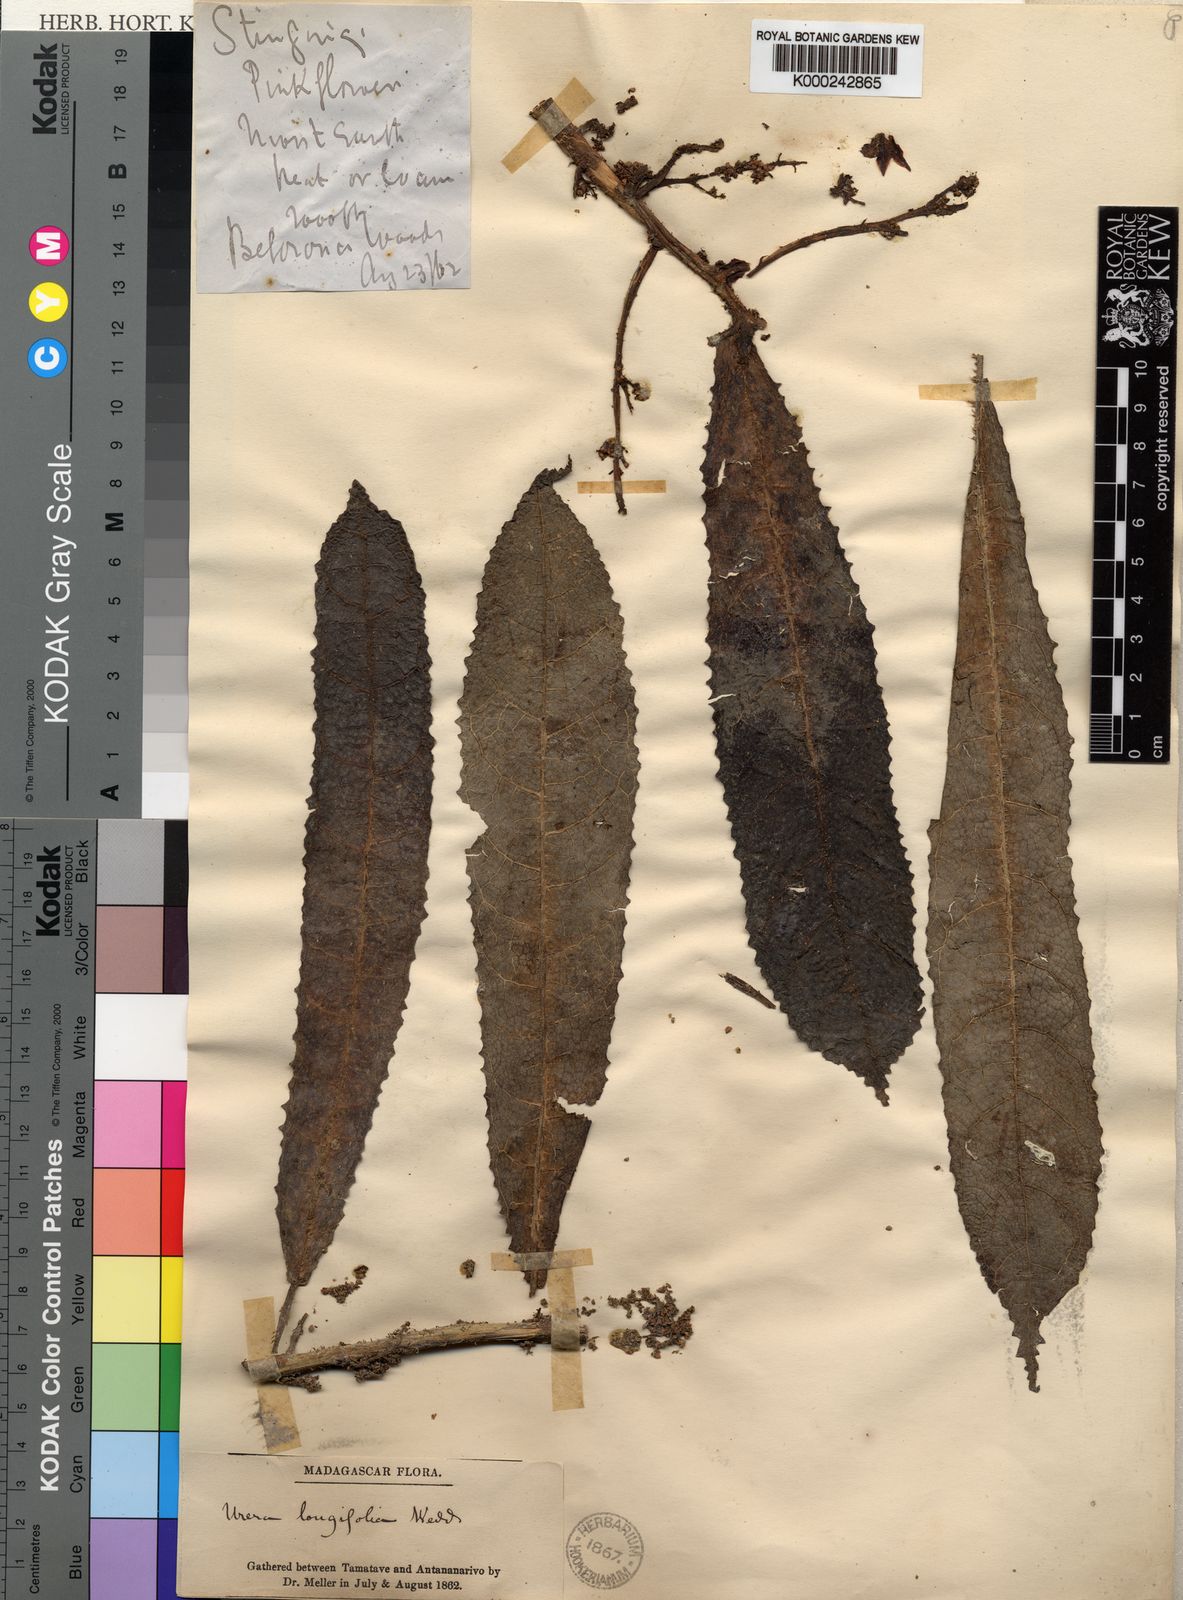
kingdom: Plantae
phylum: Tracheophyta
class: Magnoliopsida
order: Rosales
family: Urticaceae
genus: Laportea
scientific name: Laportea humblotii
